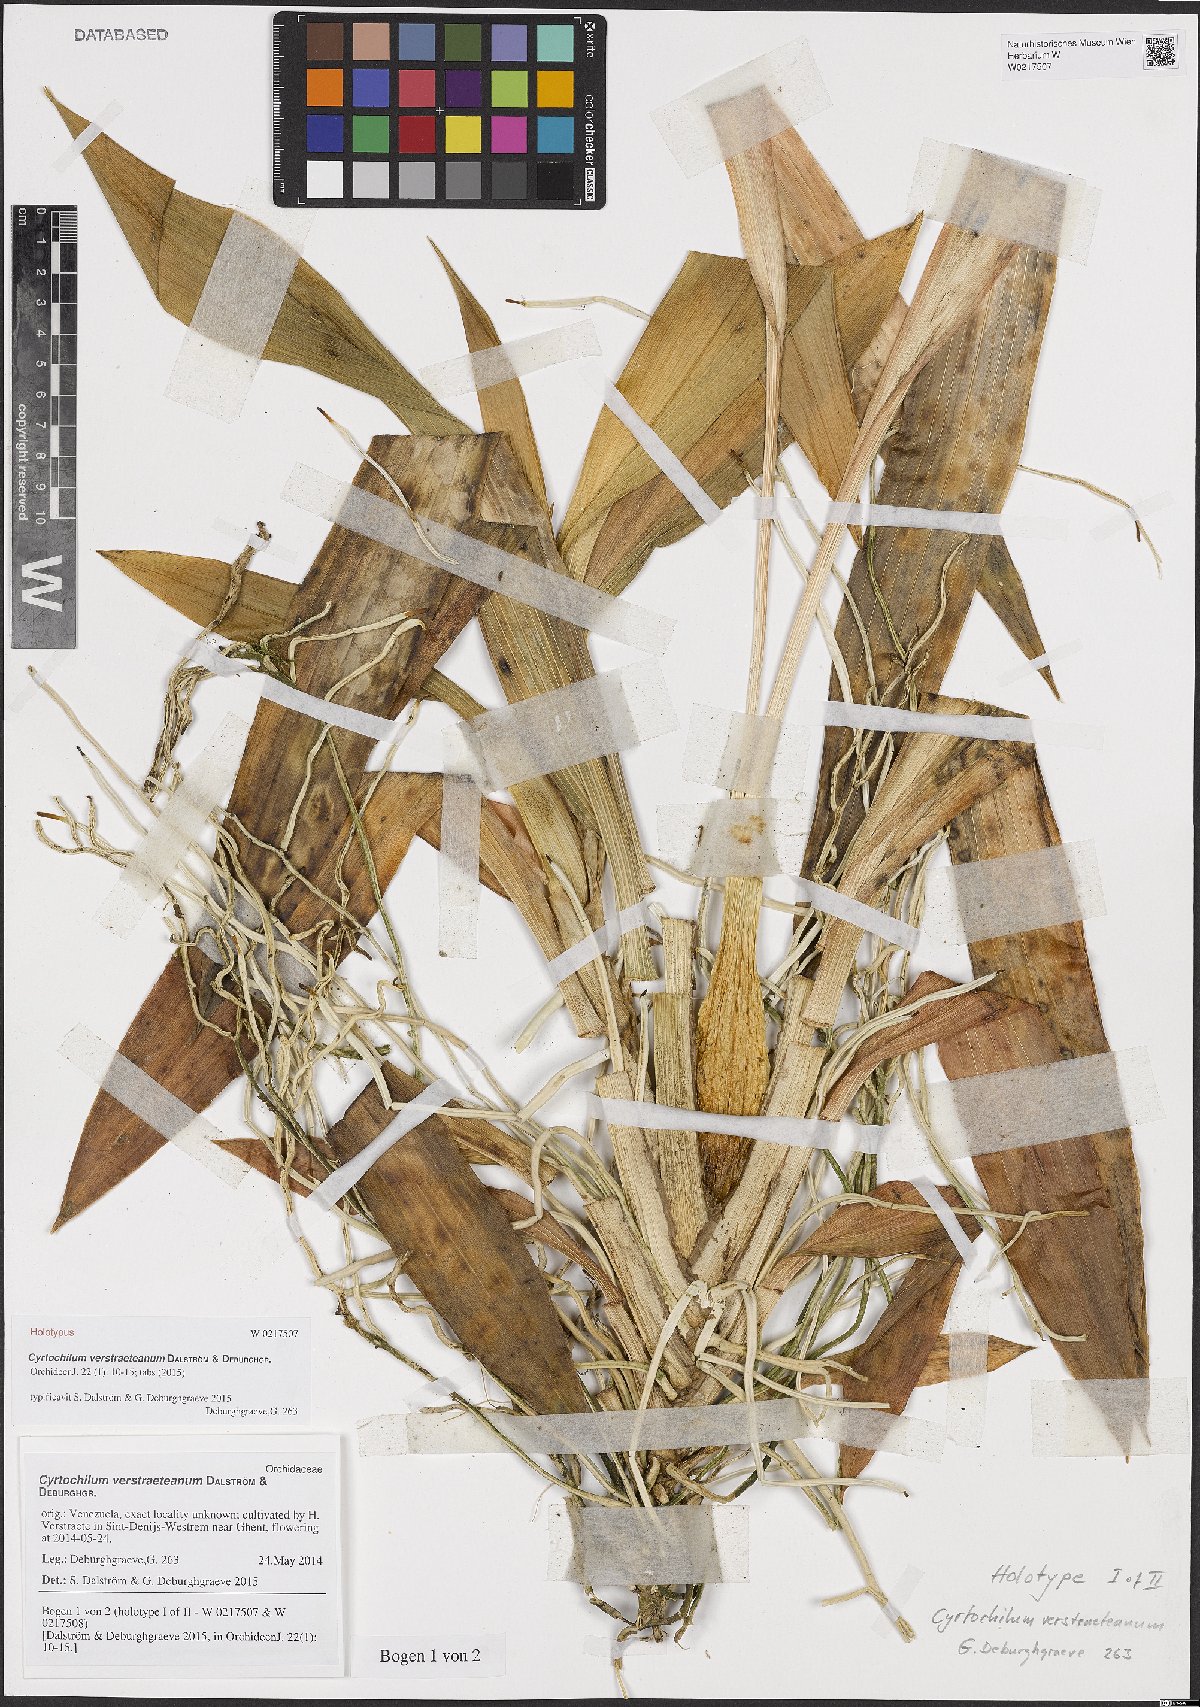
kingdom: Plantae
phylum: Tracheophyta
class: Liliopsida
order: Asparagales
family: Orchidaceae
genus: Cyrtochilum
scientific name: Cyrtochilum verstraeteanum
